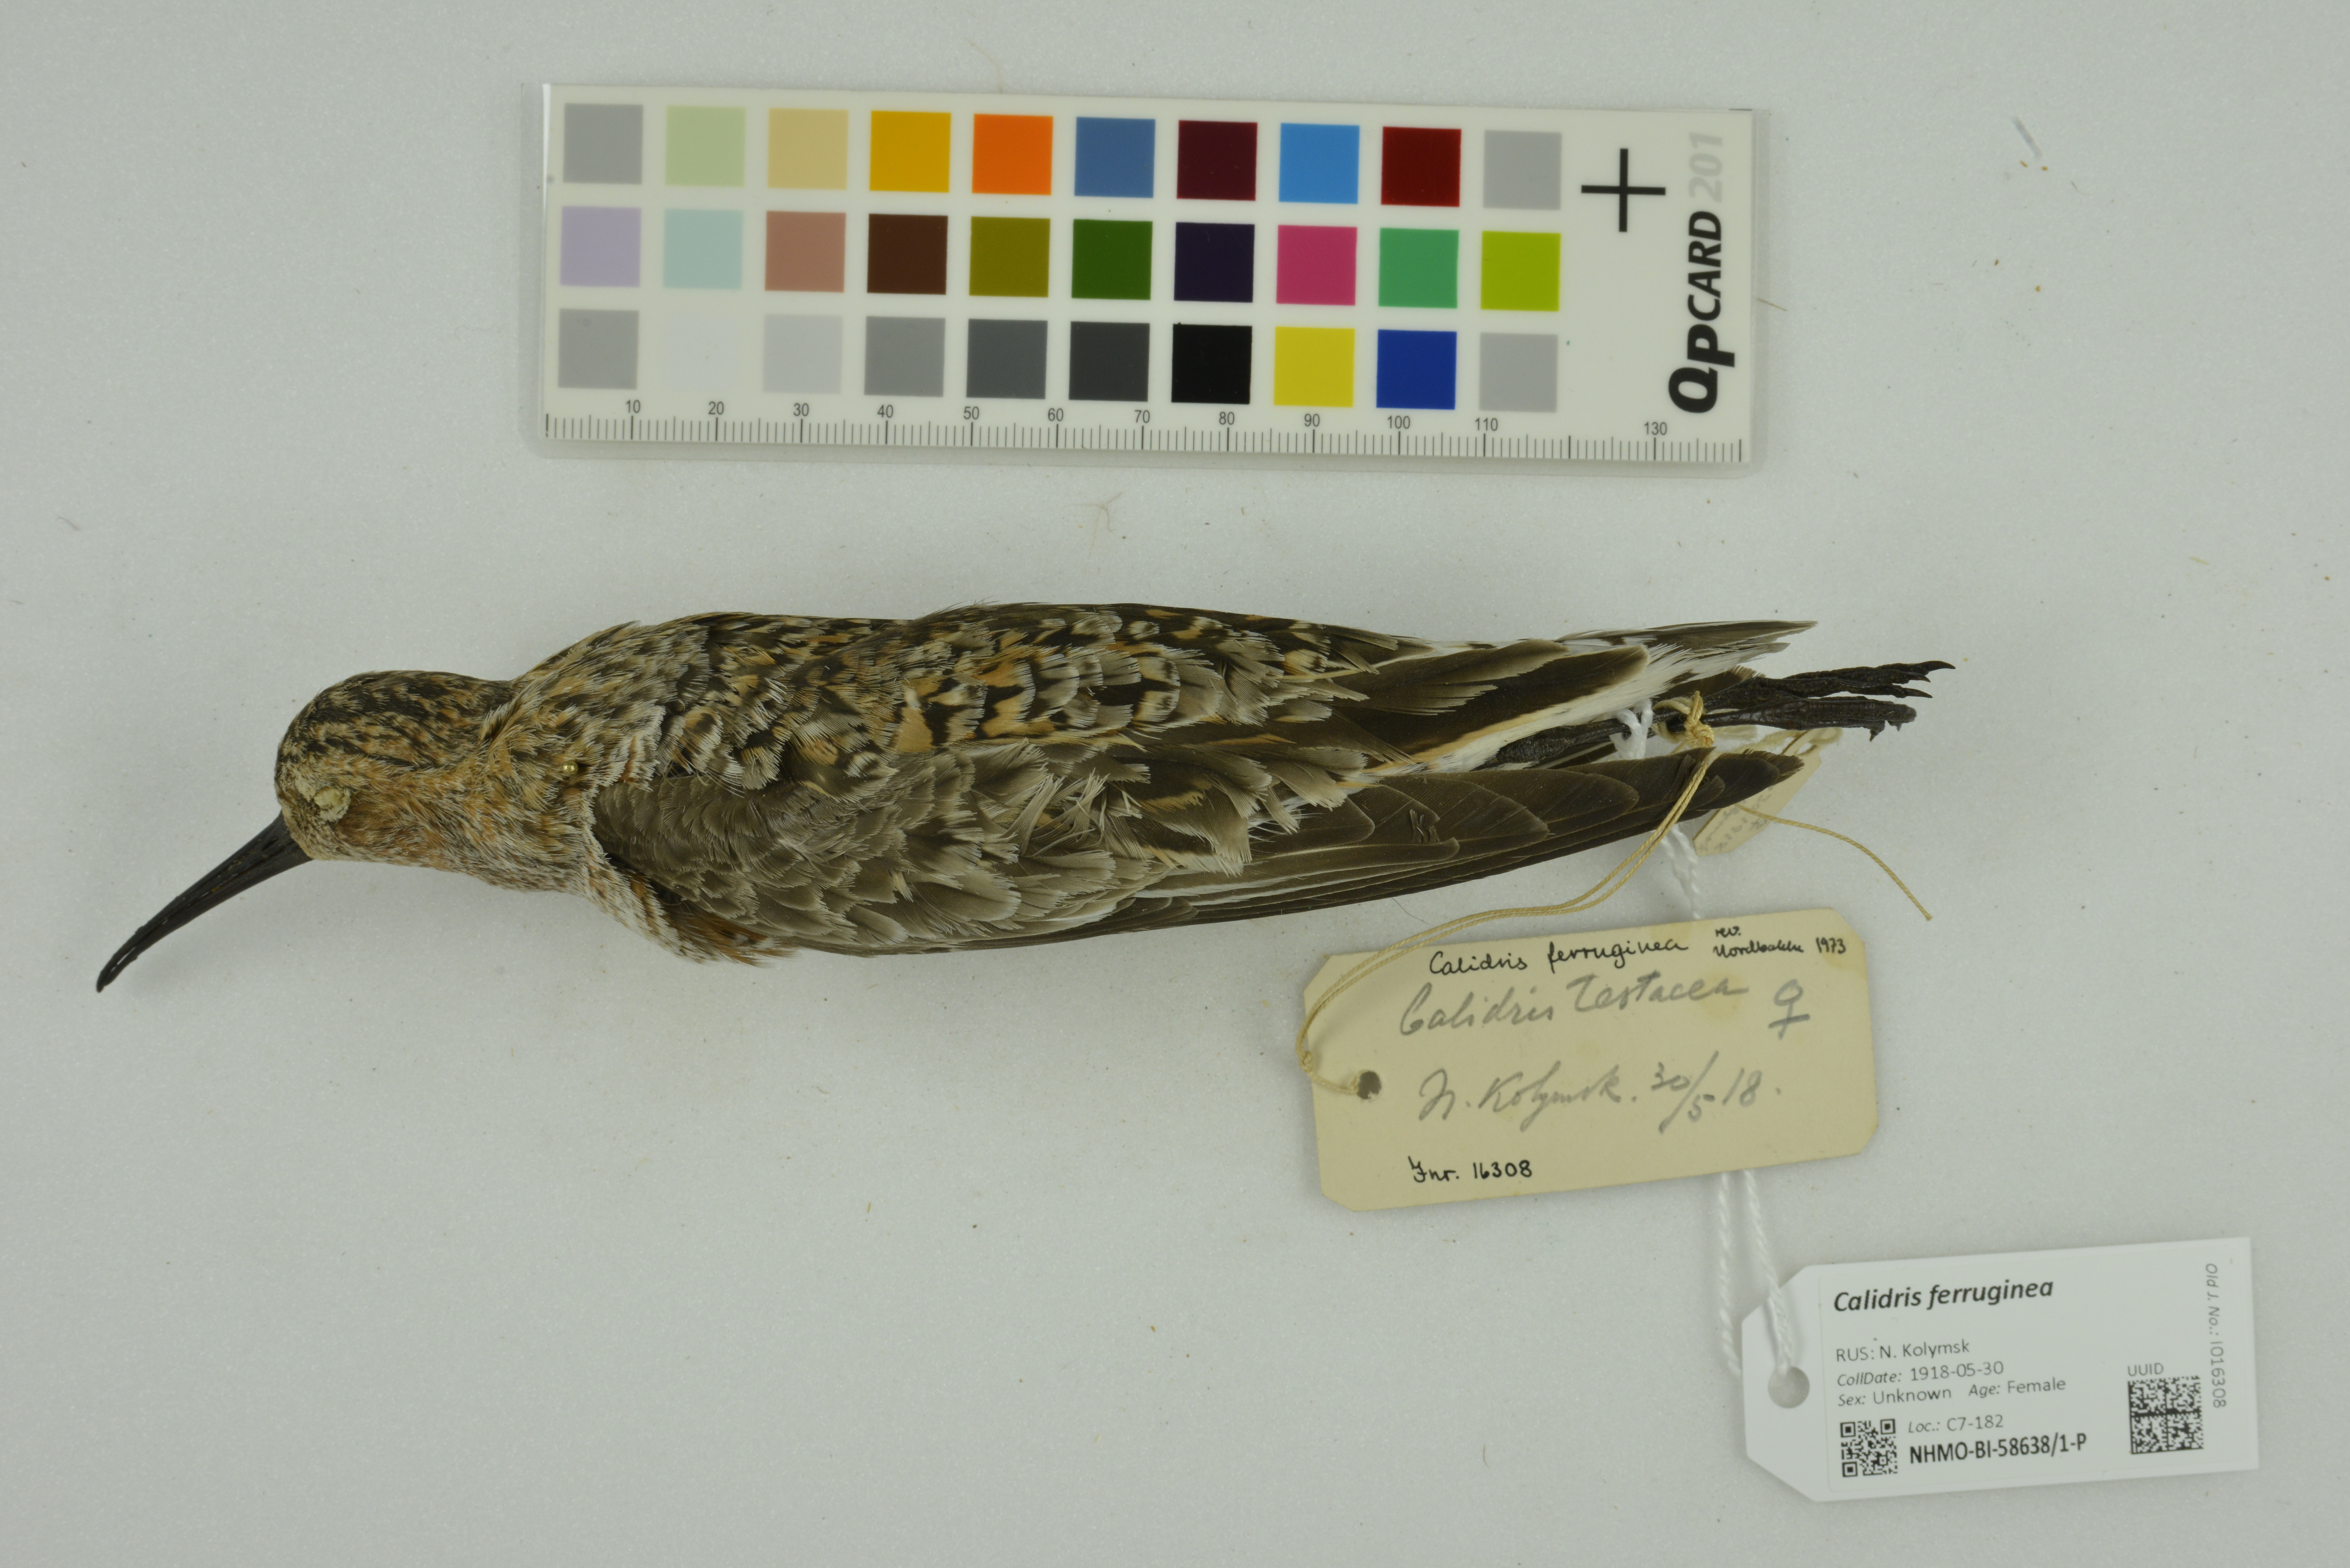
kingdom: Animalia
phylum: Chordata
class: Aves
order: Charadriiformes
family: Scolopacidae
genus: Calidris
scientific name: Calidris ferruginea
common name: Curlew sandpiper
